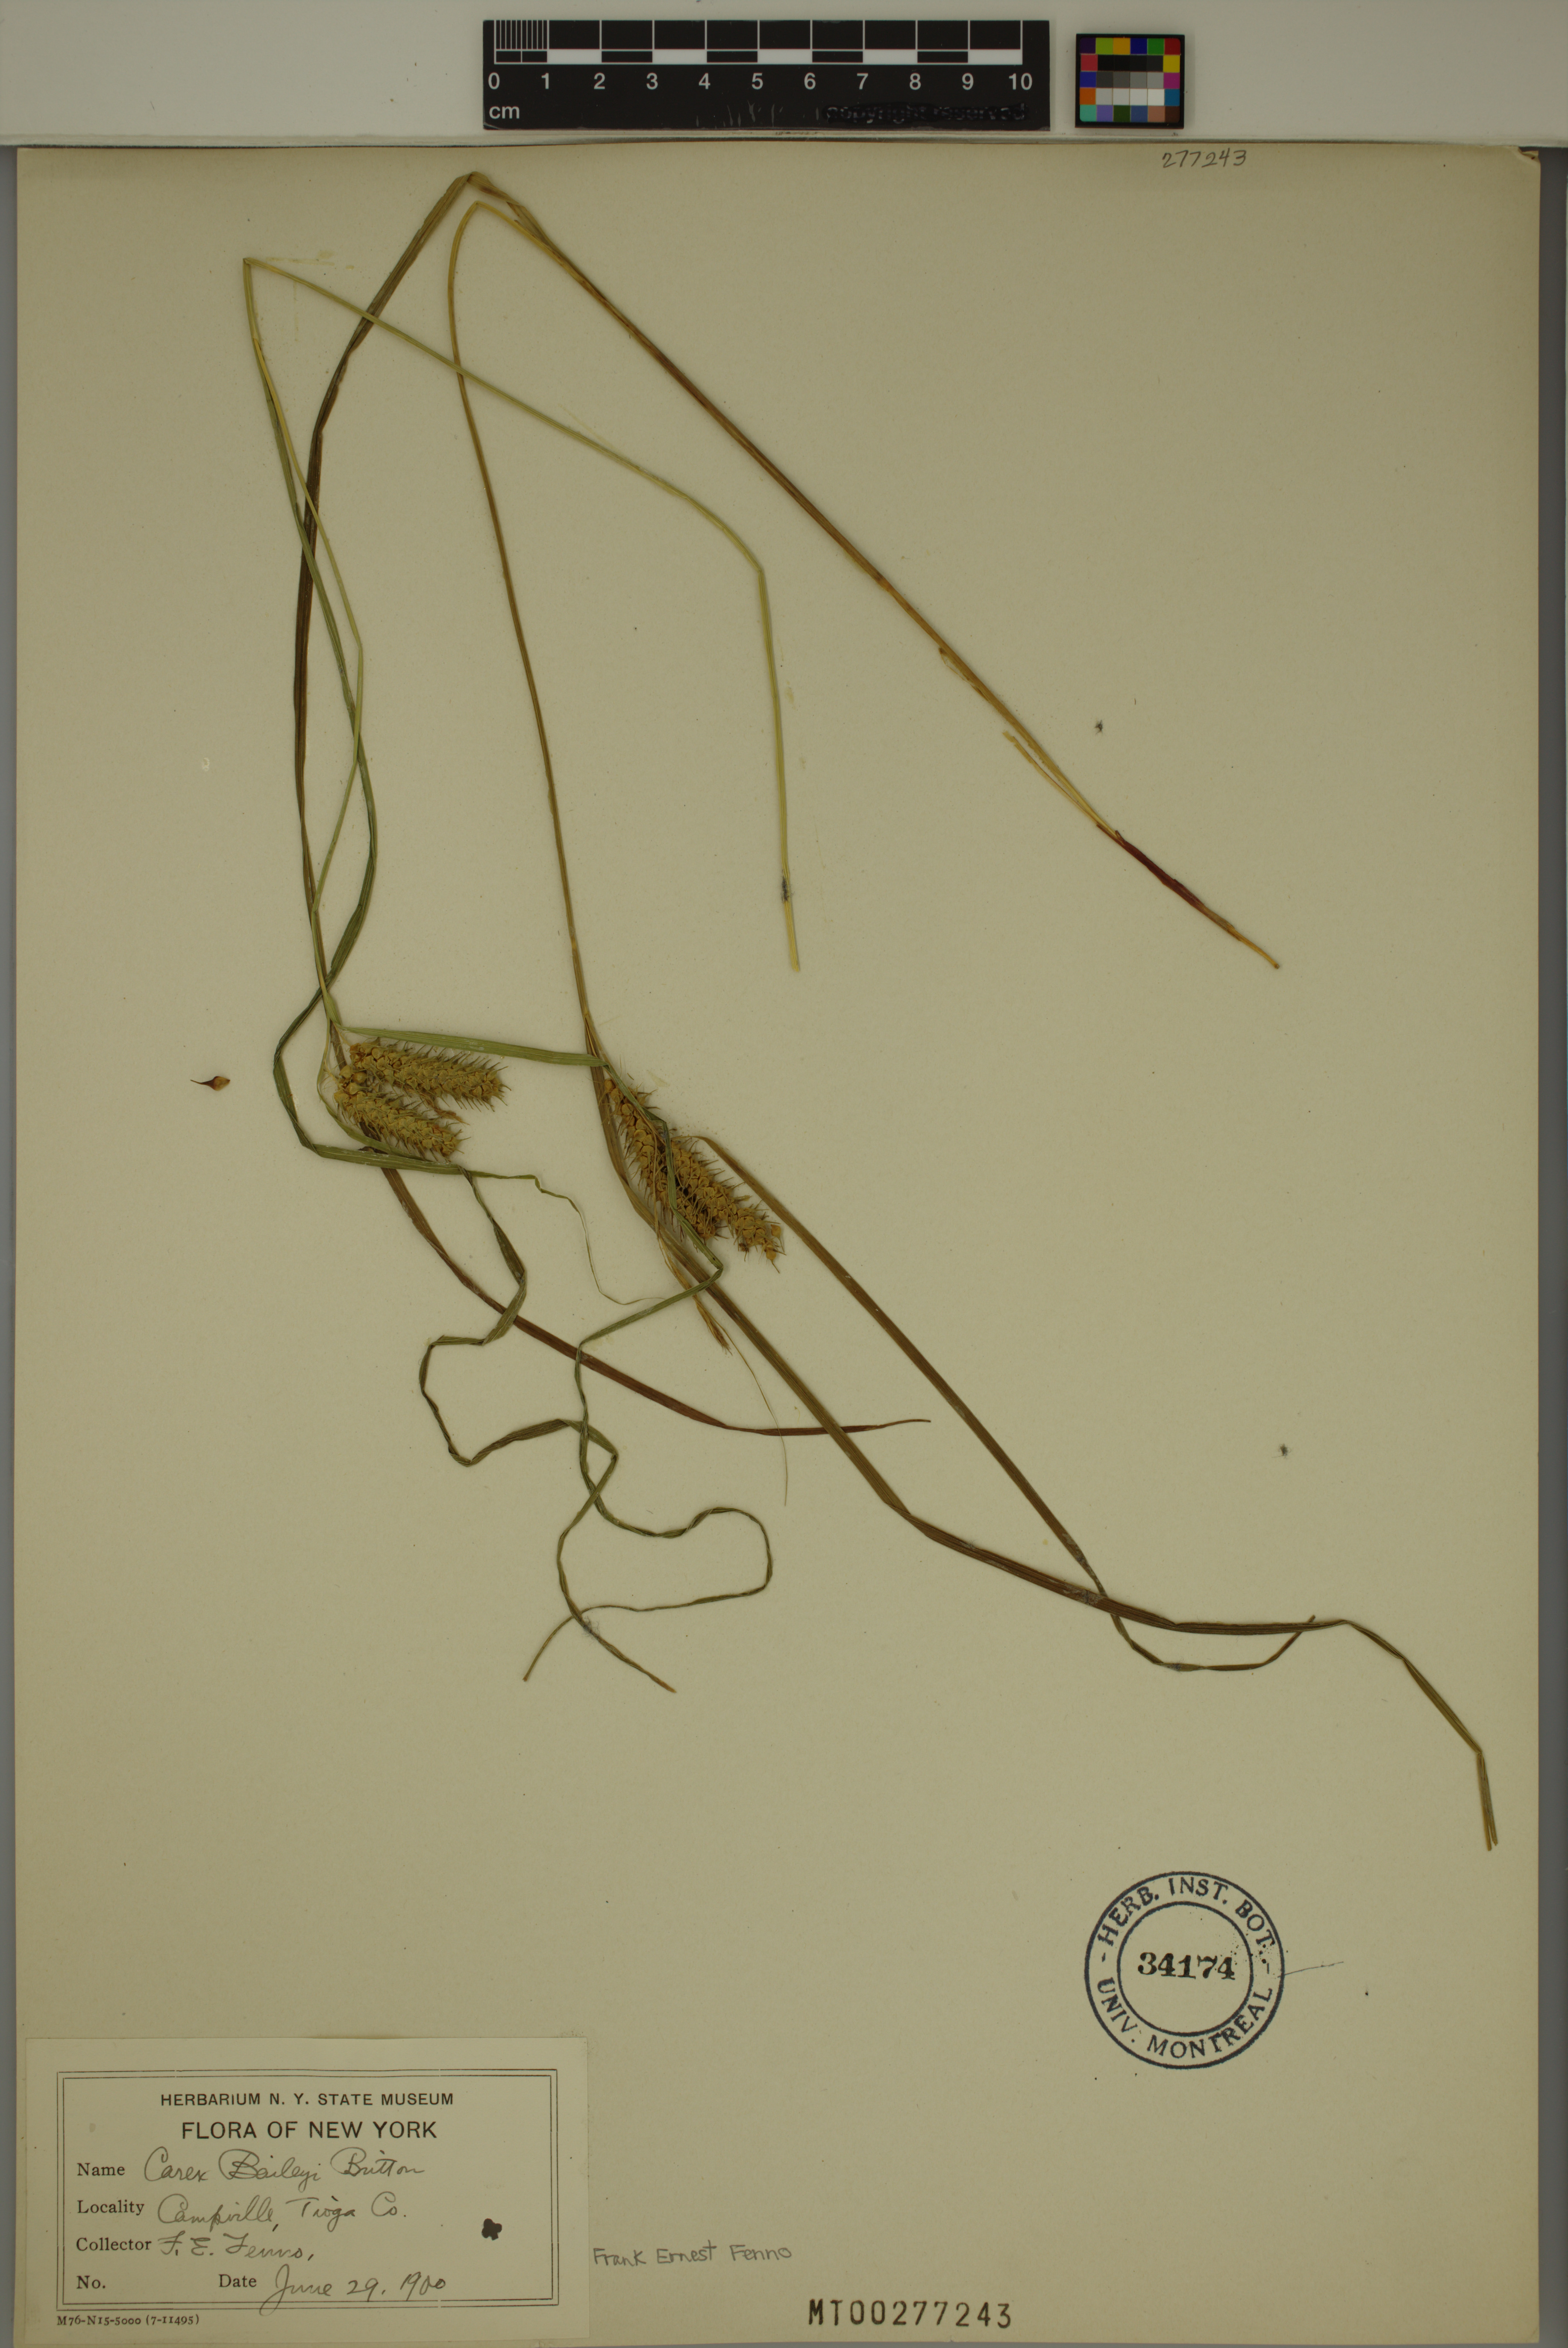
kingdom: Plantae
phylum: Tracheophyta
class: Liliopsida
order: Poales
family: Cyperaceae
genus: Carex
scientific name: Carex baileyi
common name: Bailey's sedge
